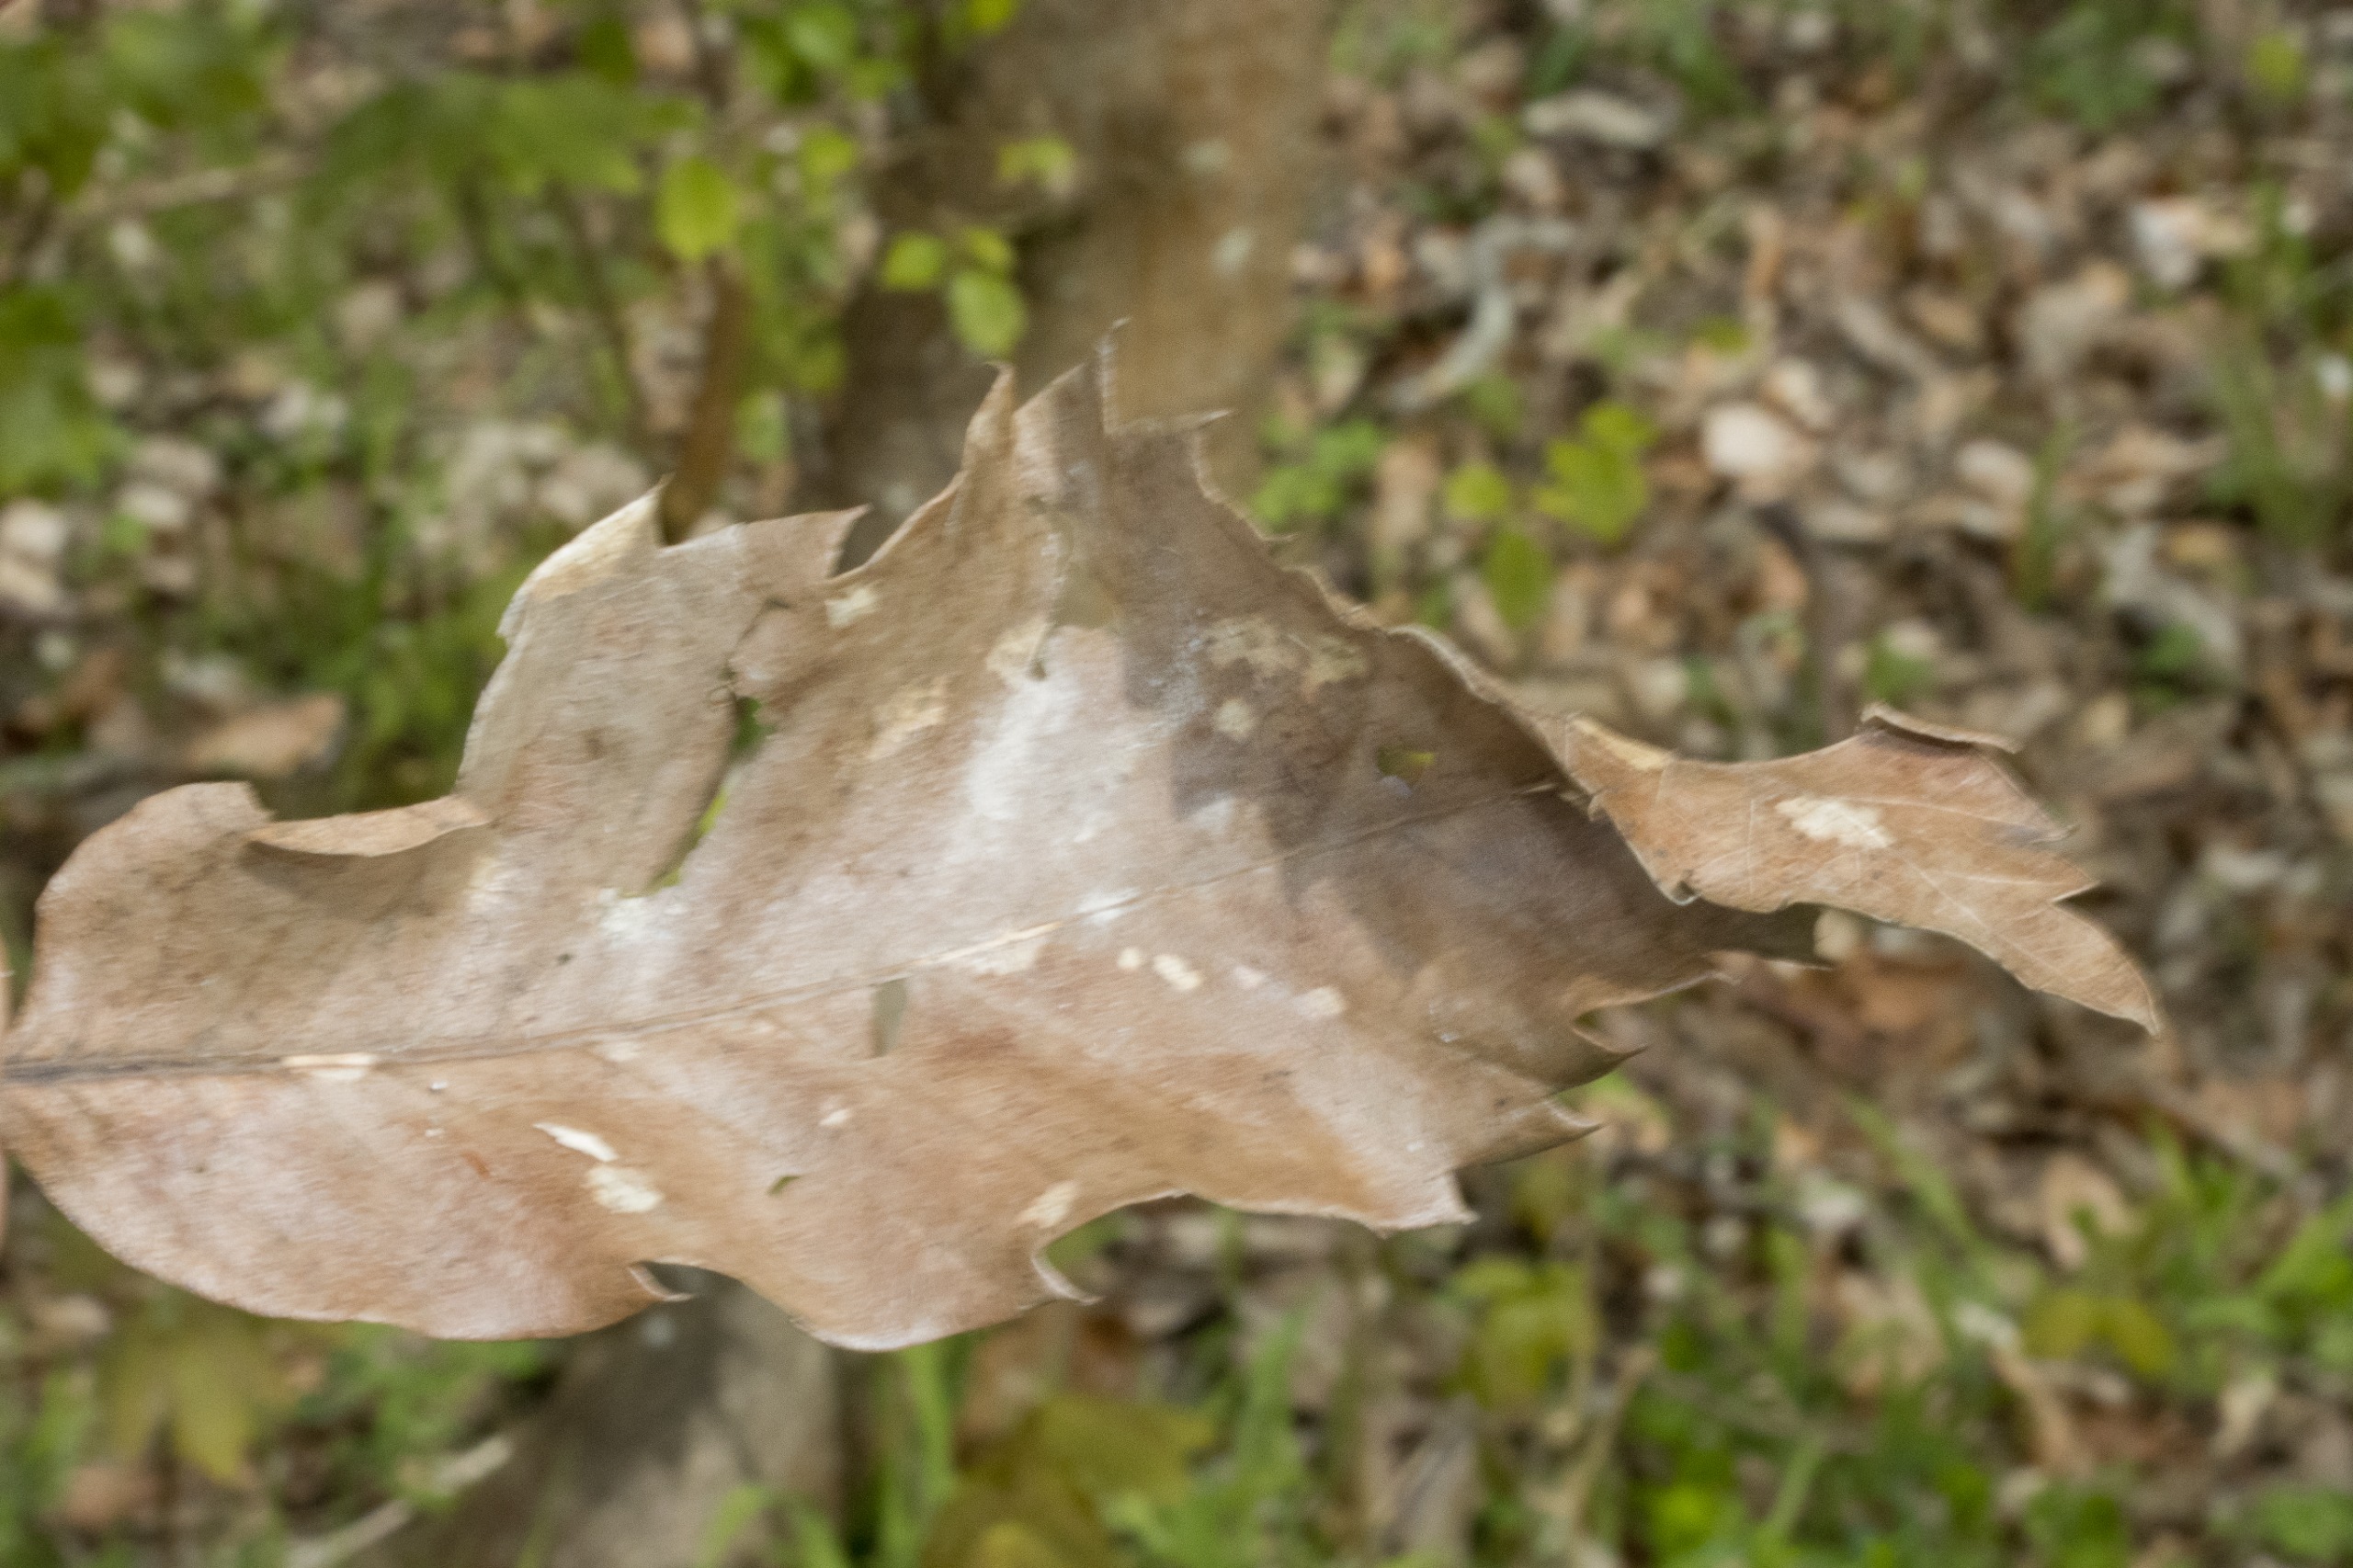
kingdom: Plantae
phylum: Tracheophyta
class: Magnoliopsida
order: Fagales
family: Fagaceae
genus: Castanea
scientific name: Castanea sativa
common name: Ægte kastanie
